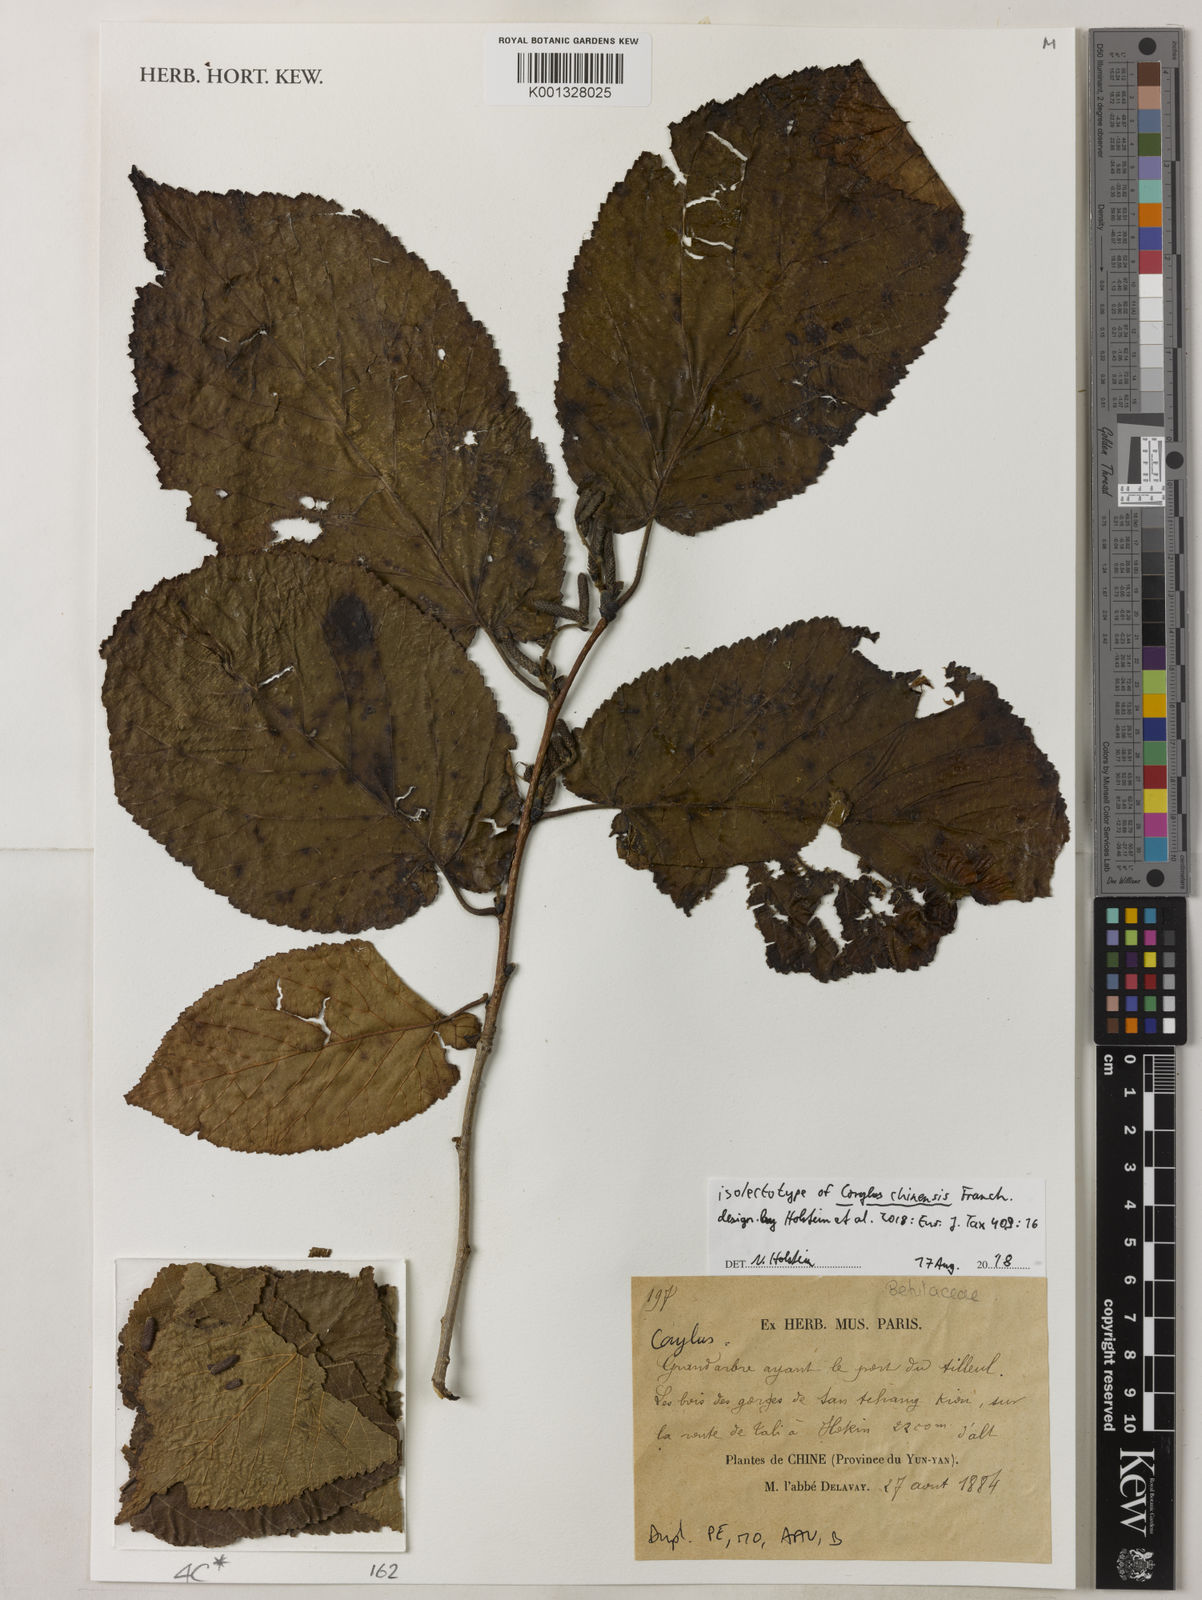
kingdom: Plantae
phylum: Tracheophyta
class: Magnoliopsida
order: Fagales
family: Betulaceae
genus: Corylus
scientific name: Corylus chinensis
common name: Chinese hazlenut
